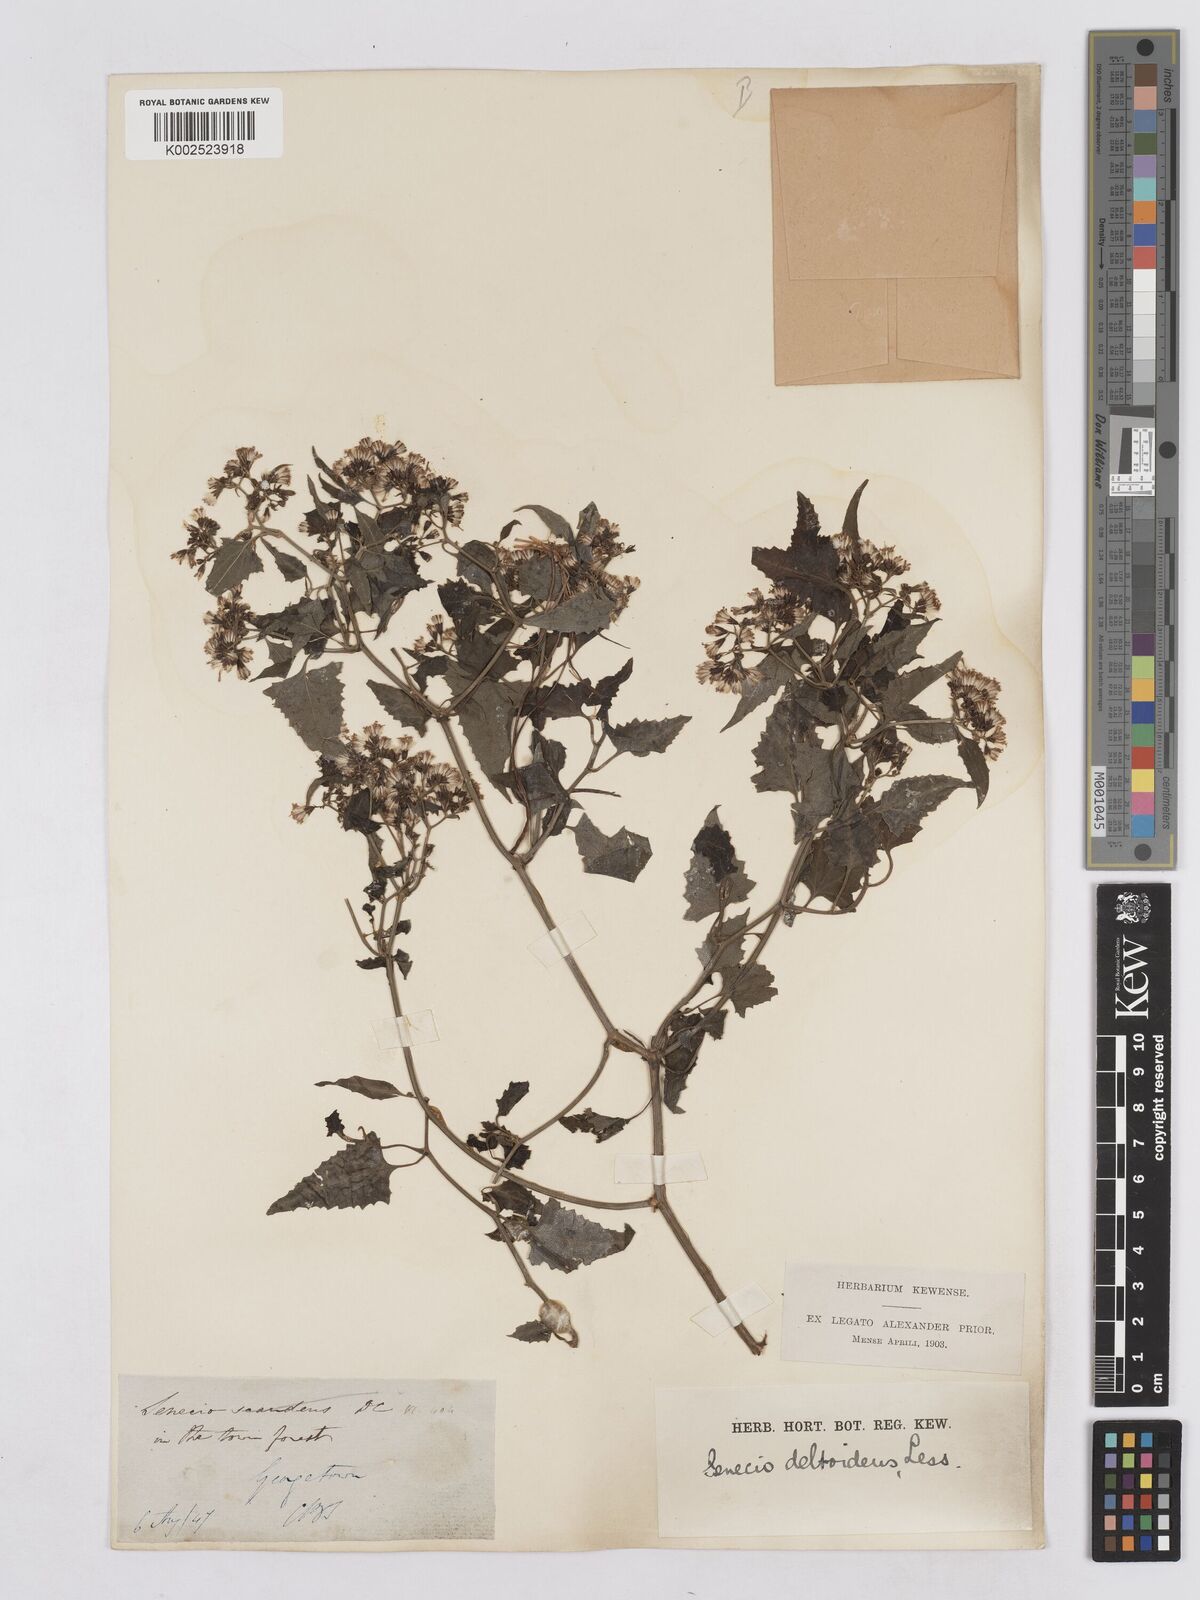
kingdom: Plantae
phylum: Tracheophyta
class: Magnoliopsida
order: Asterales
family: Asteraceae
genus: Senecio
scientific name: Senecio deltoideus
